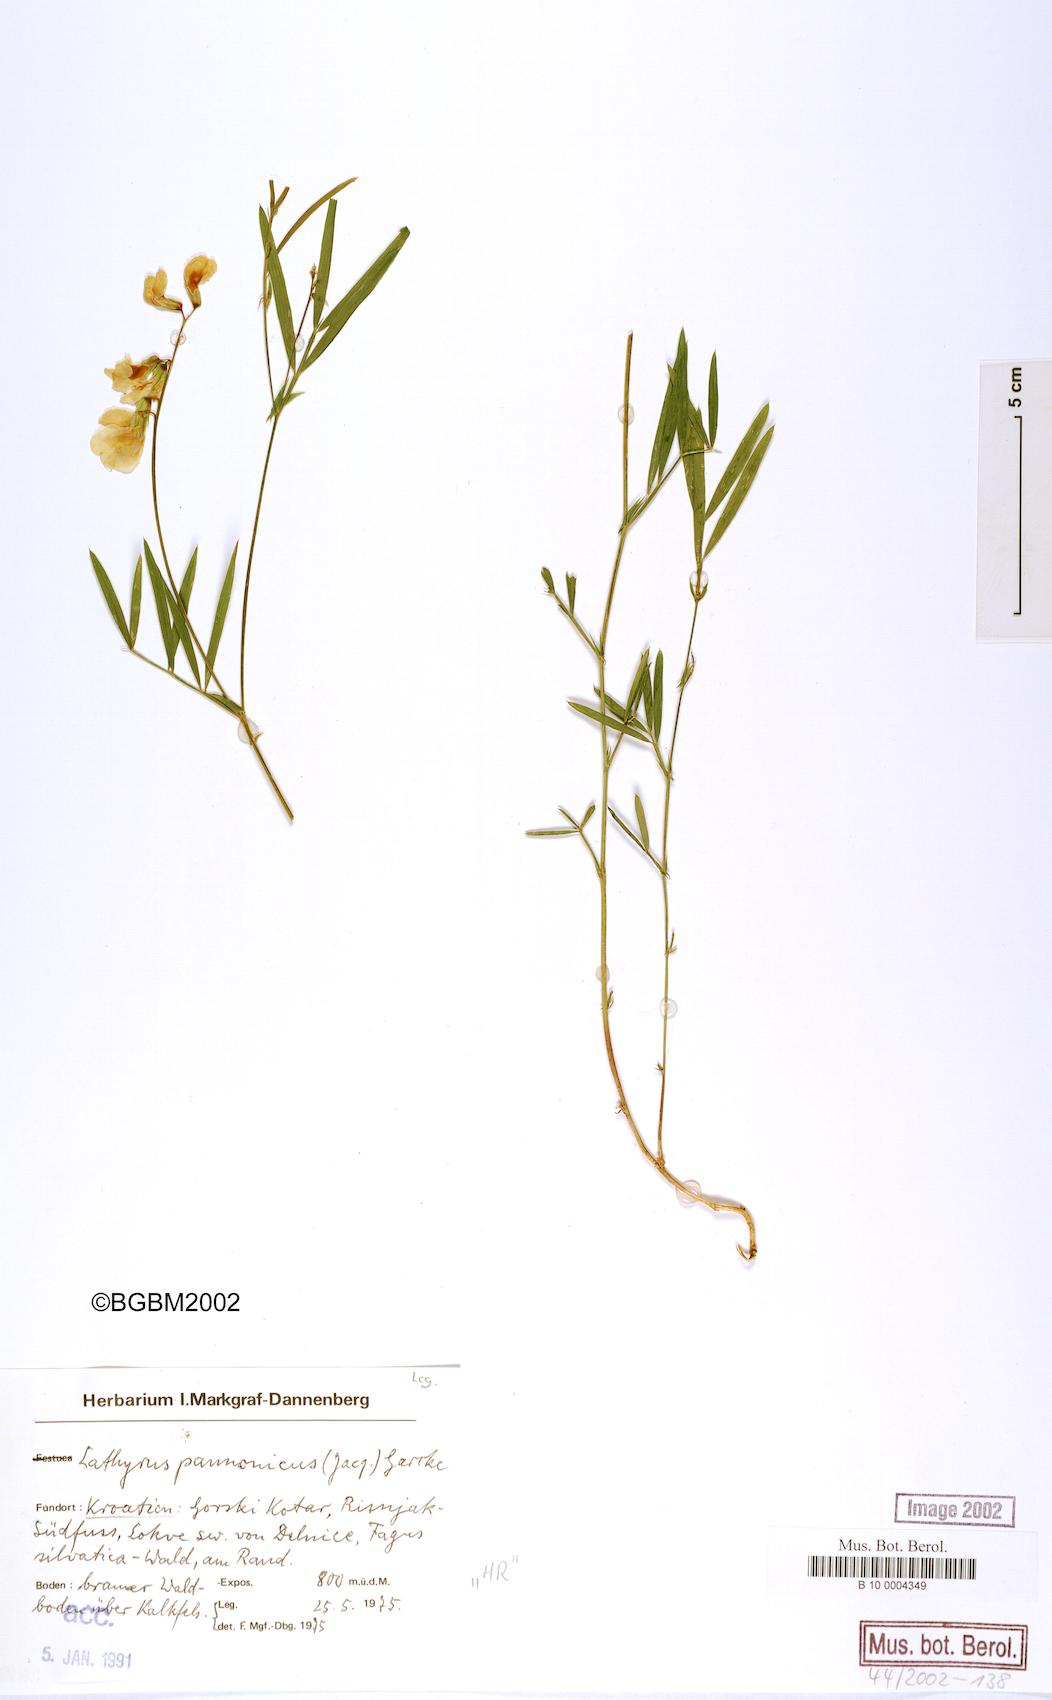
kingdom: Plantae
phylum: Tracheophyta
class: Magnoliopsida
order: Fabales
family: Fabaceae
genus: Lathyrus
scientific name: Lathyrus pannonicus
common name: Pea
